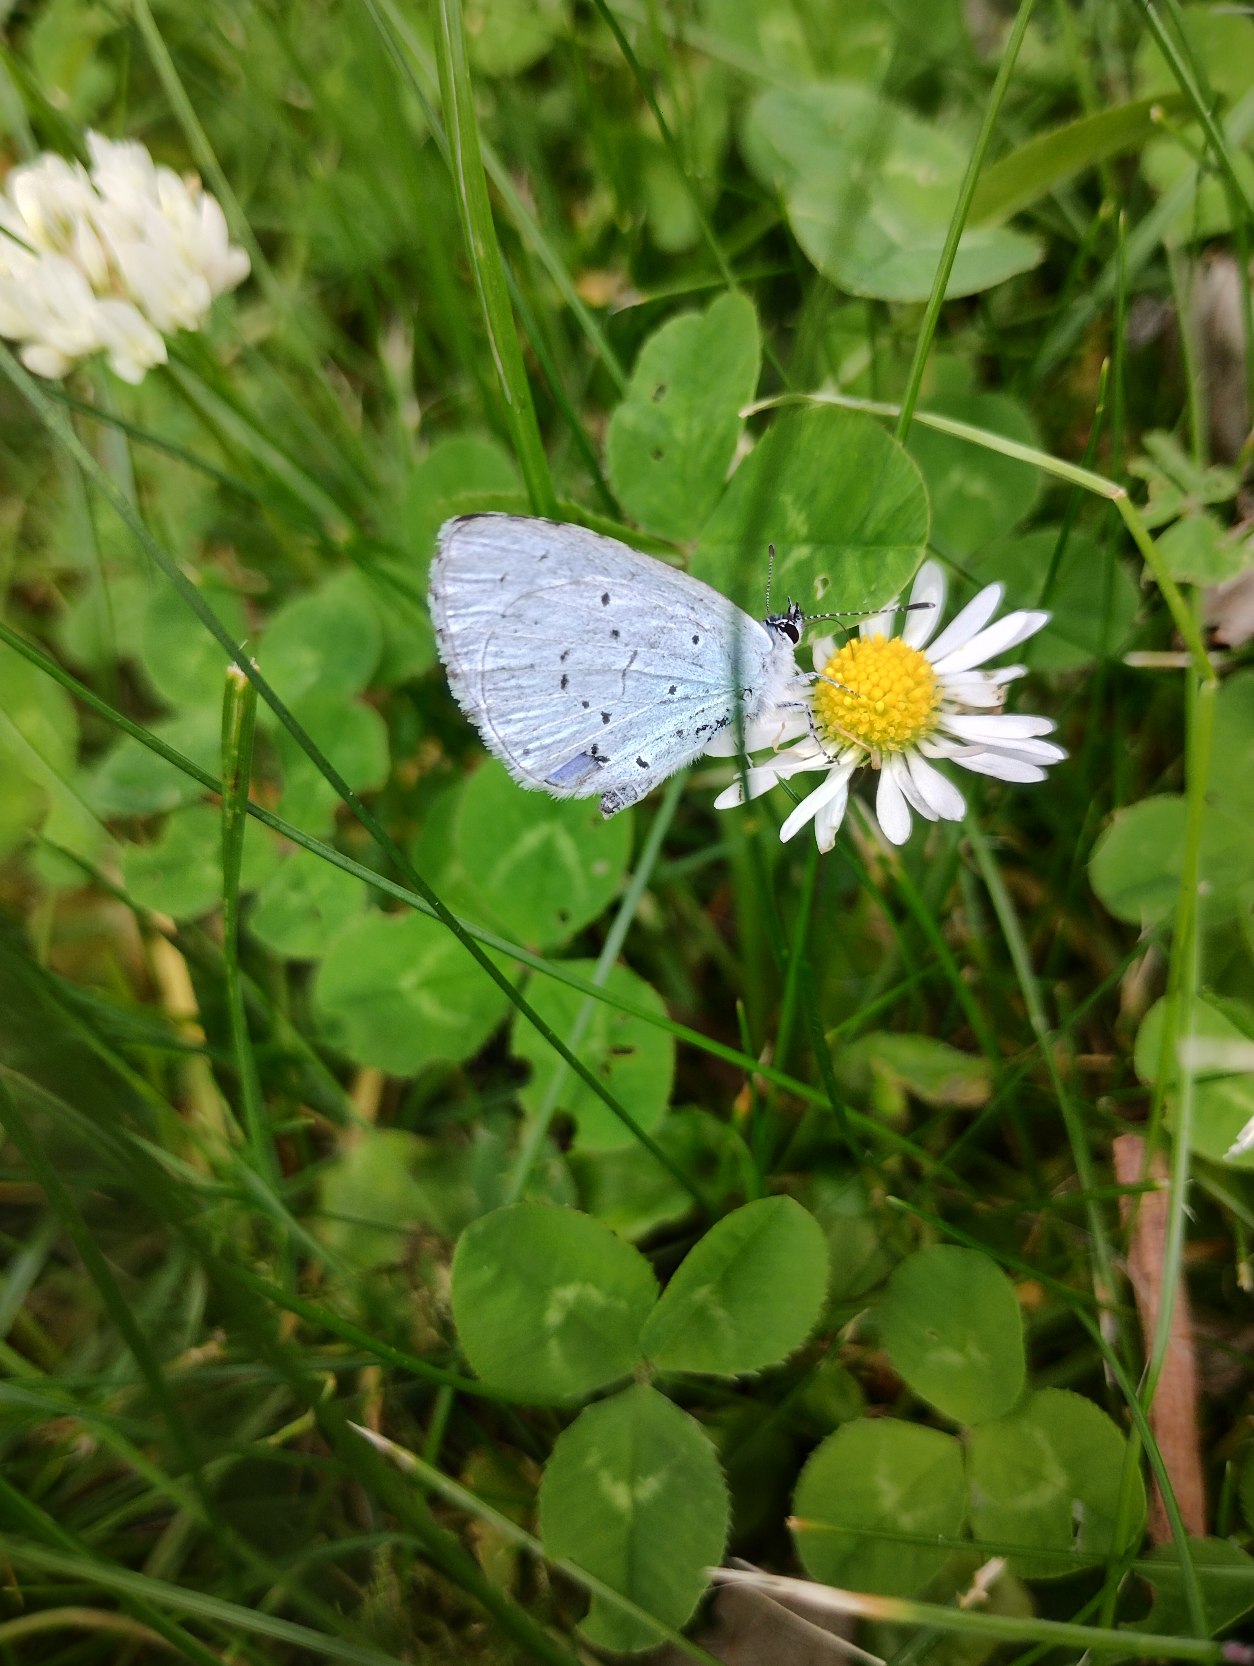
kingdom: Animalia
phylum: Arthropoda
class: Insecta
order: Lepidoptera
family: Lycaenidae
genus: Celastrina
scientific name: Celastrina argiolus
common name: Skovblåfugl
